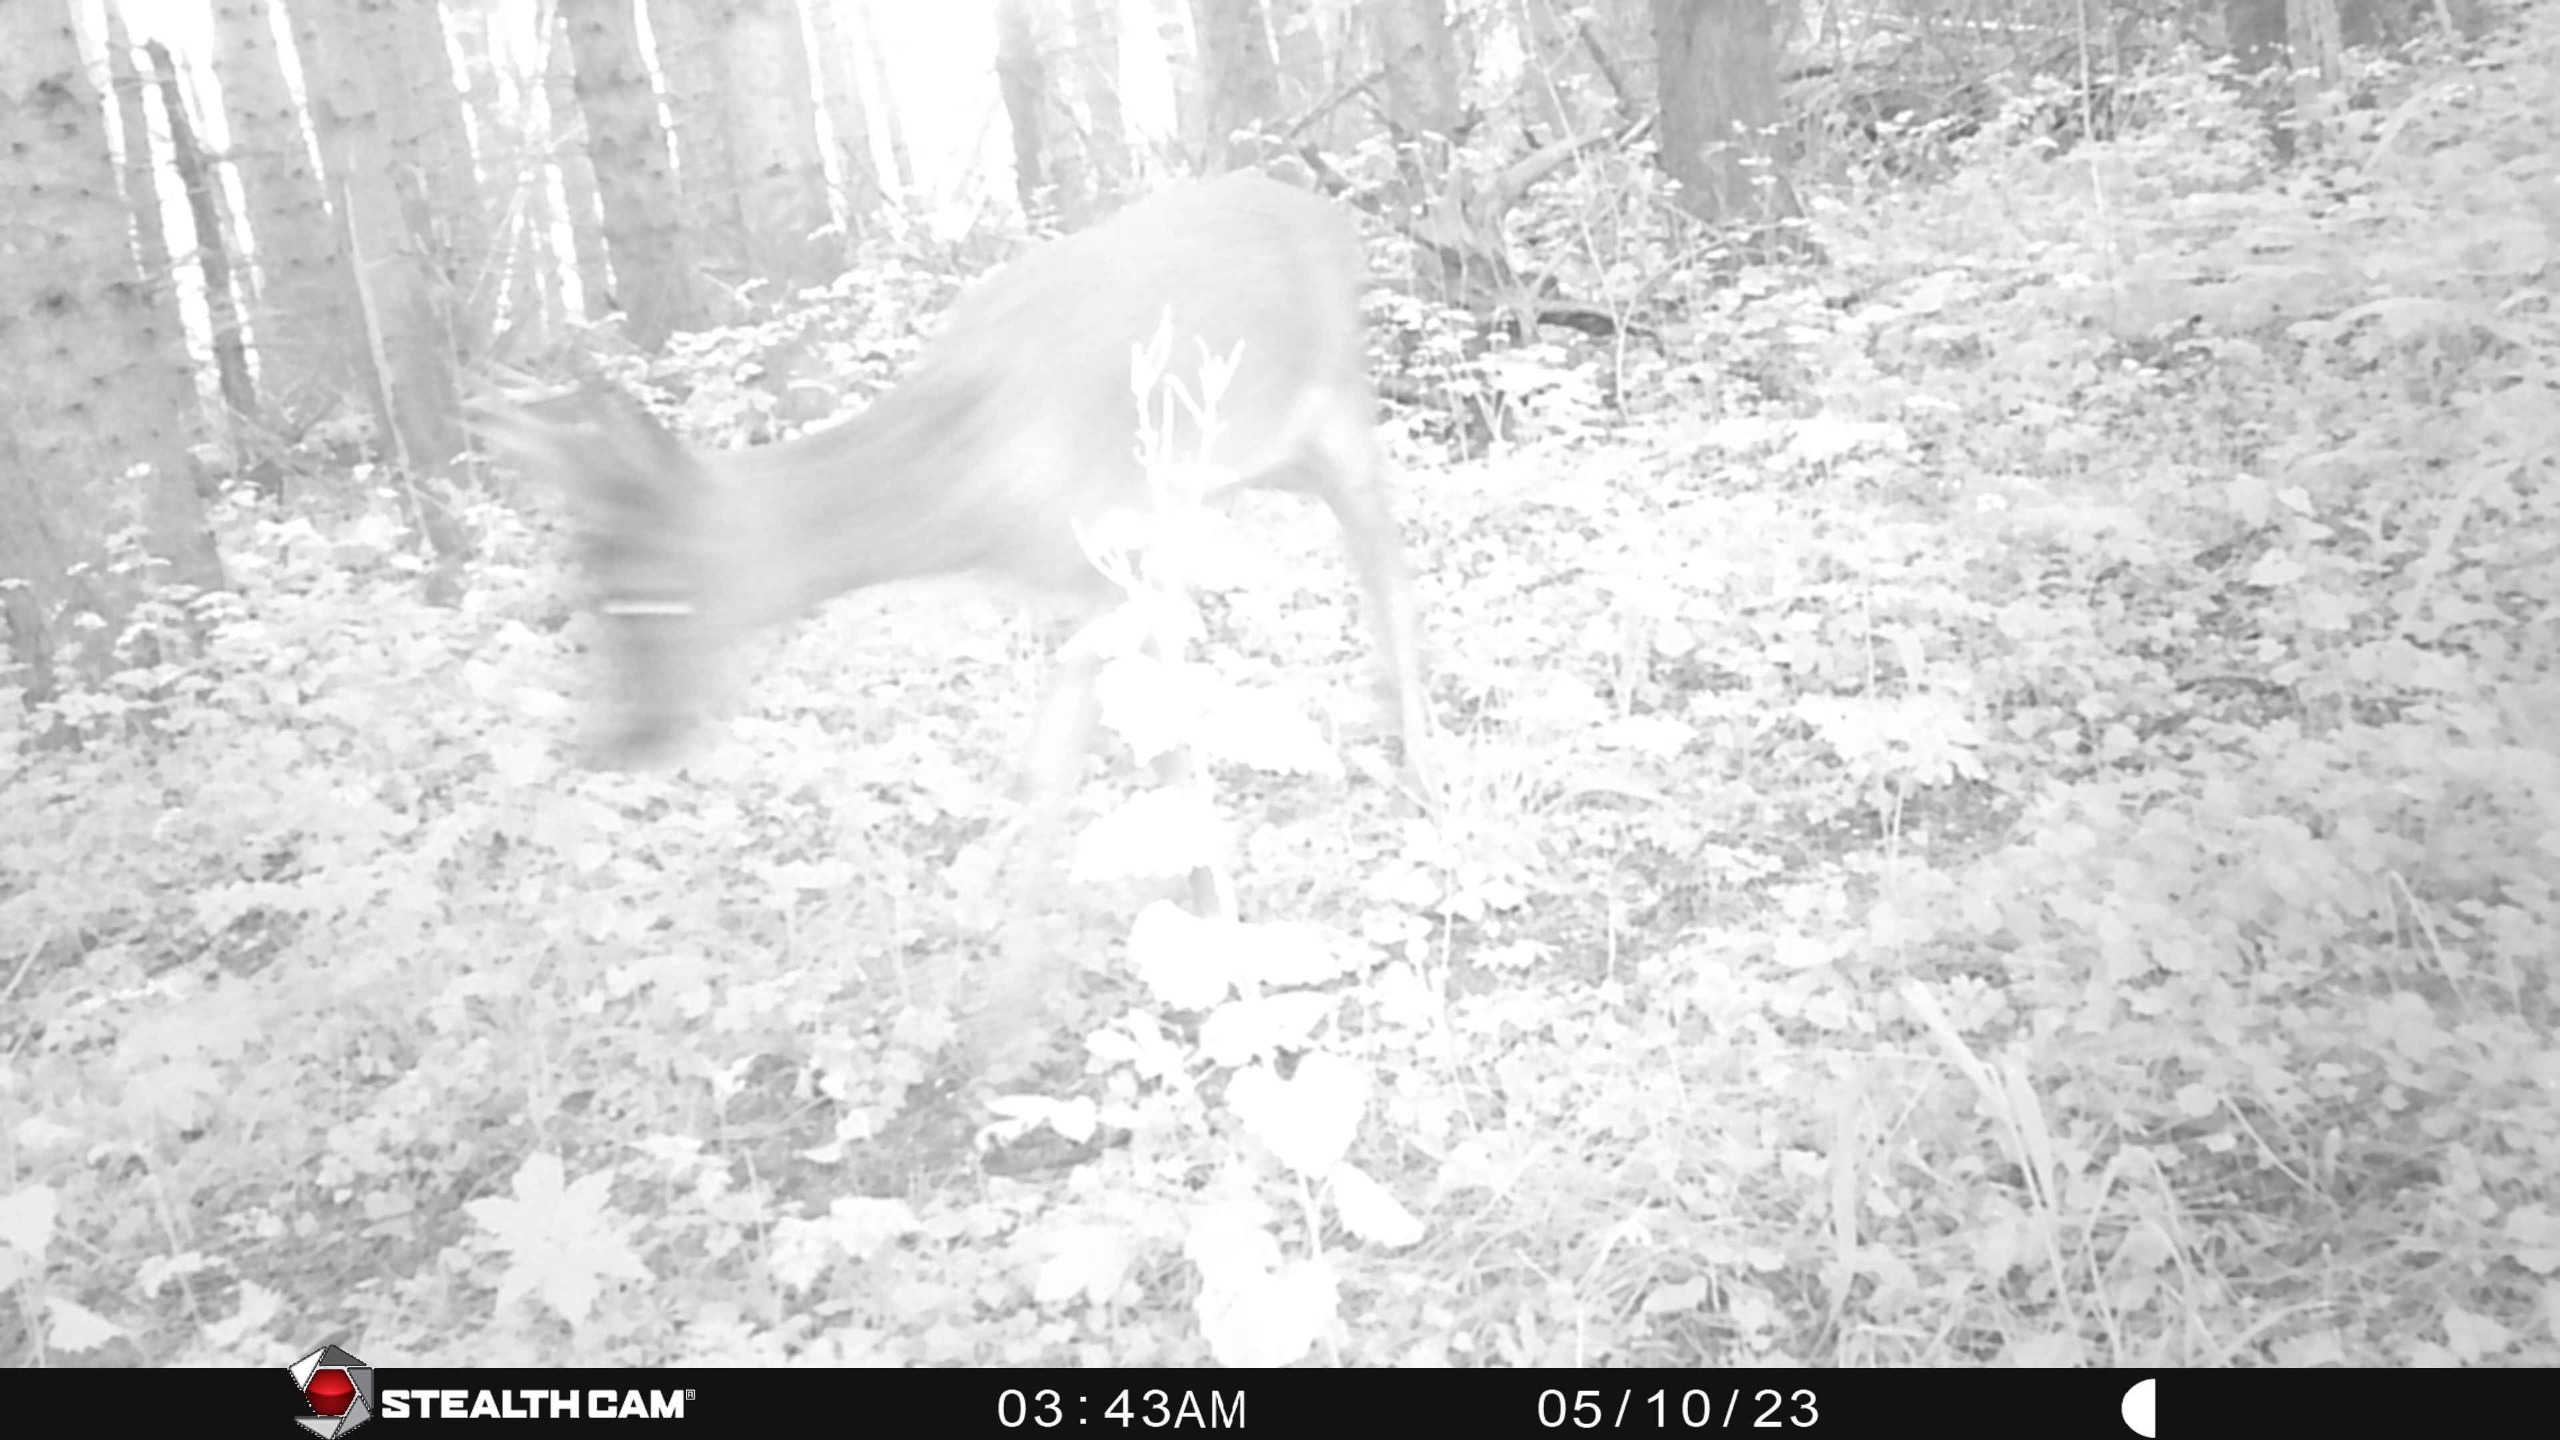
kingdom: Animalia
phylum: Chordata
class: Mammalia
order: Artiodactyla
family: Cervidae
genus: Capreolus
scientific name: Capreolus capreolus
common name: Rådyr
